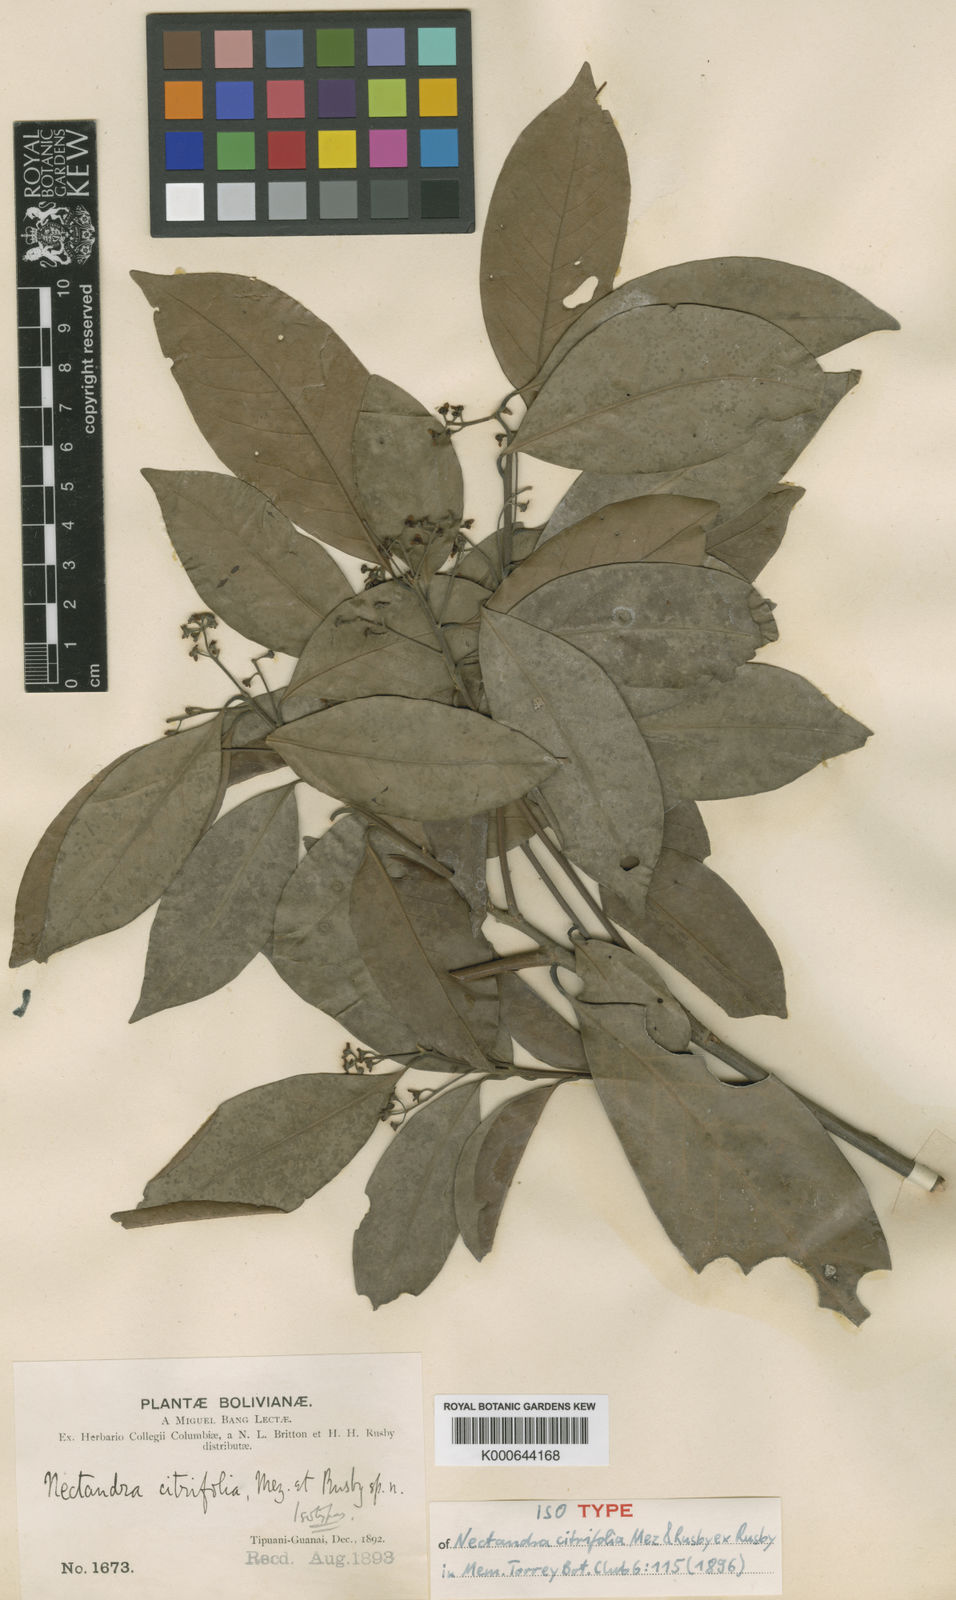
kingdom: Plantae
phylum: Tracheophyta
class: Magnoliopsida
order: Laurales
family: Lauraceae
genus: Nectandra
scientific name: Nectandra citrifolia
